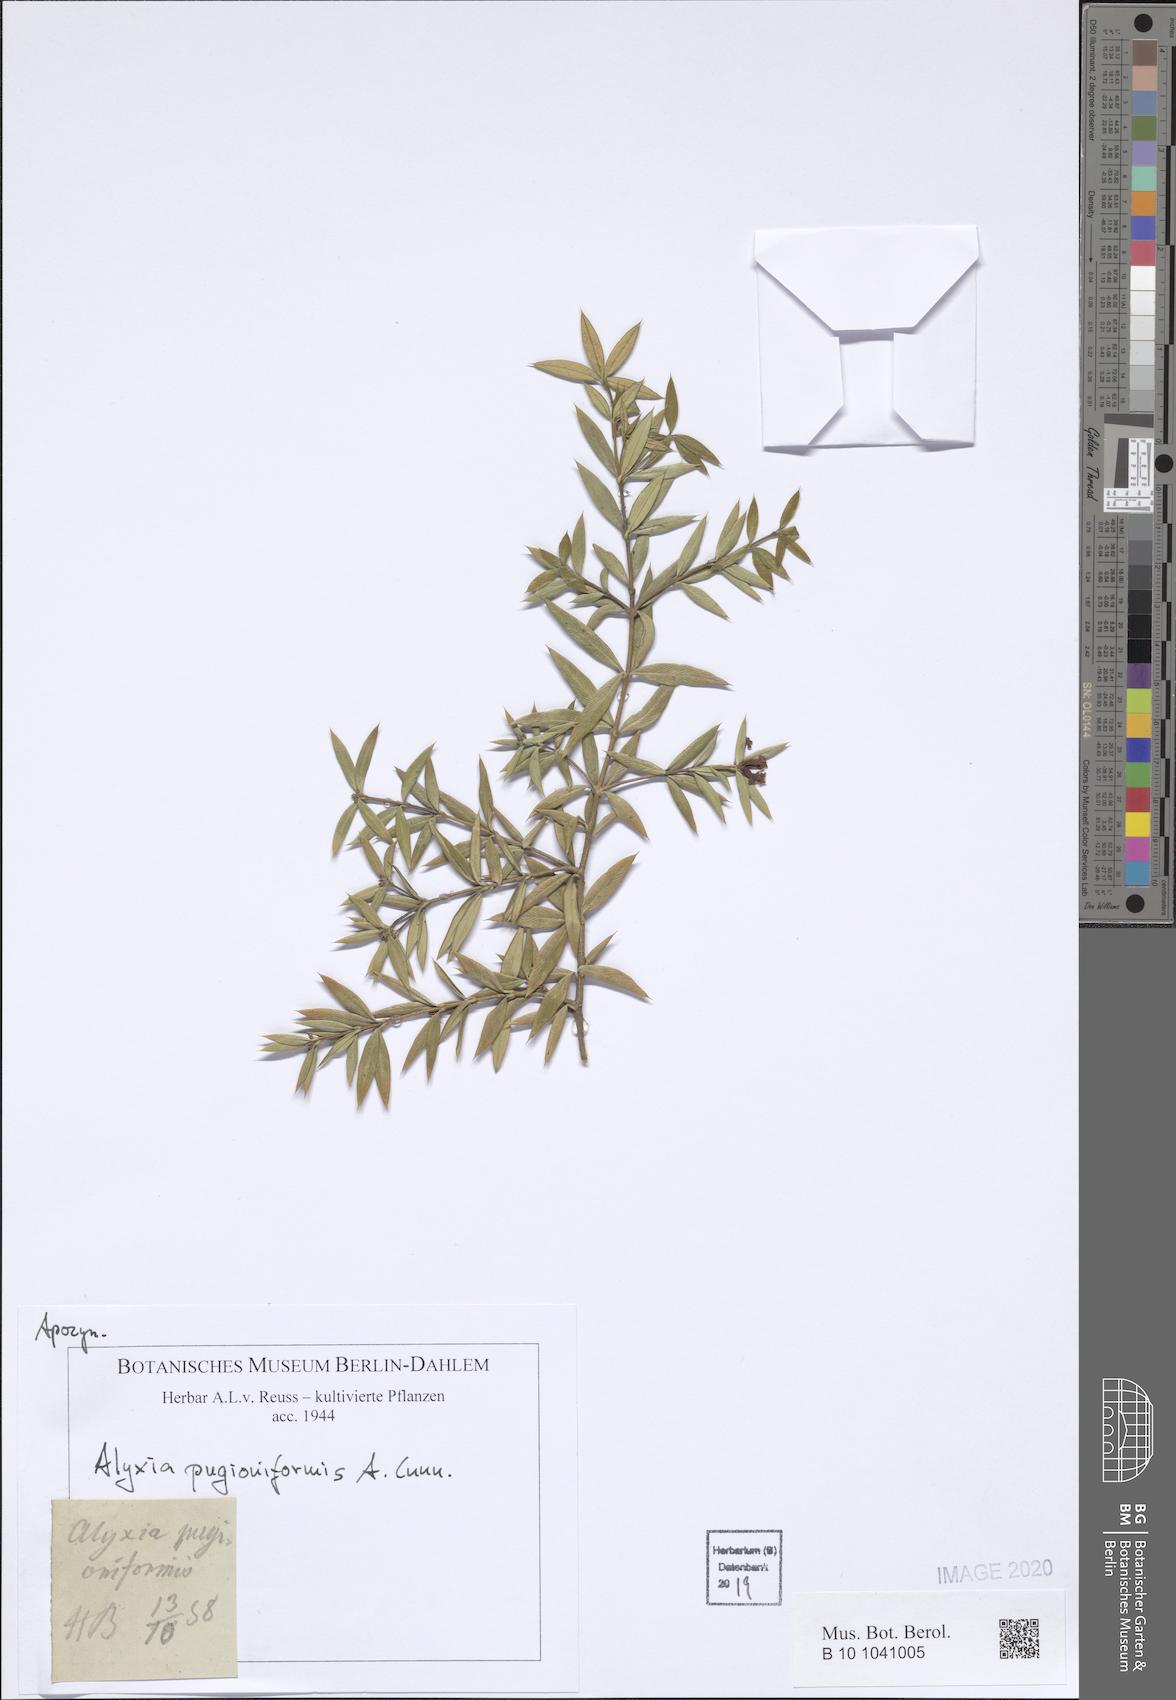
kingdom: Plantae
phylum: Tracheophyta
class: Magnoliopsida
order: Gentianales
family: Apocynaceae
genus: Alyxia
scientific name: Alyxia ruscifolia
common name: Chainfruit
